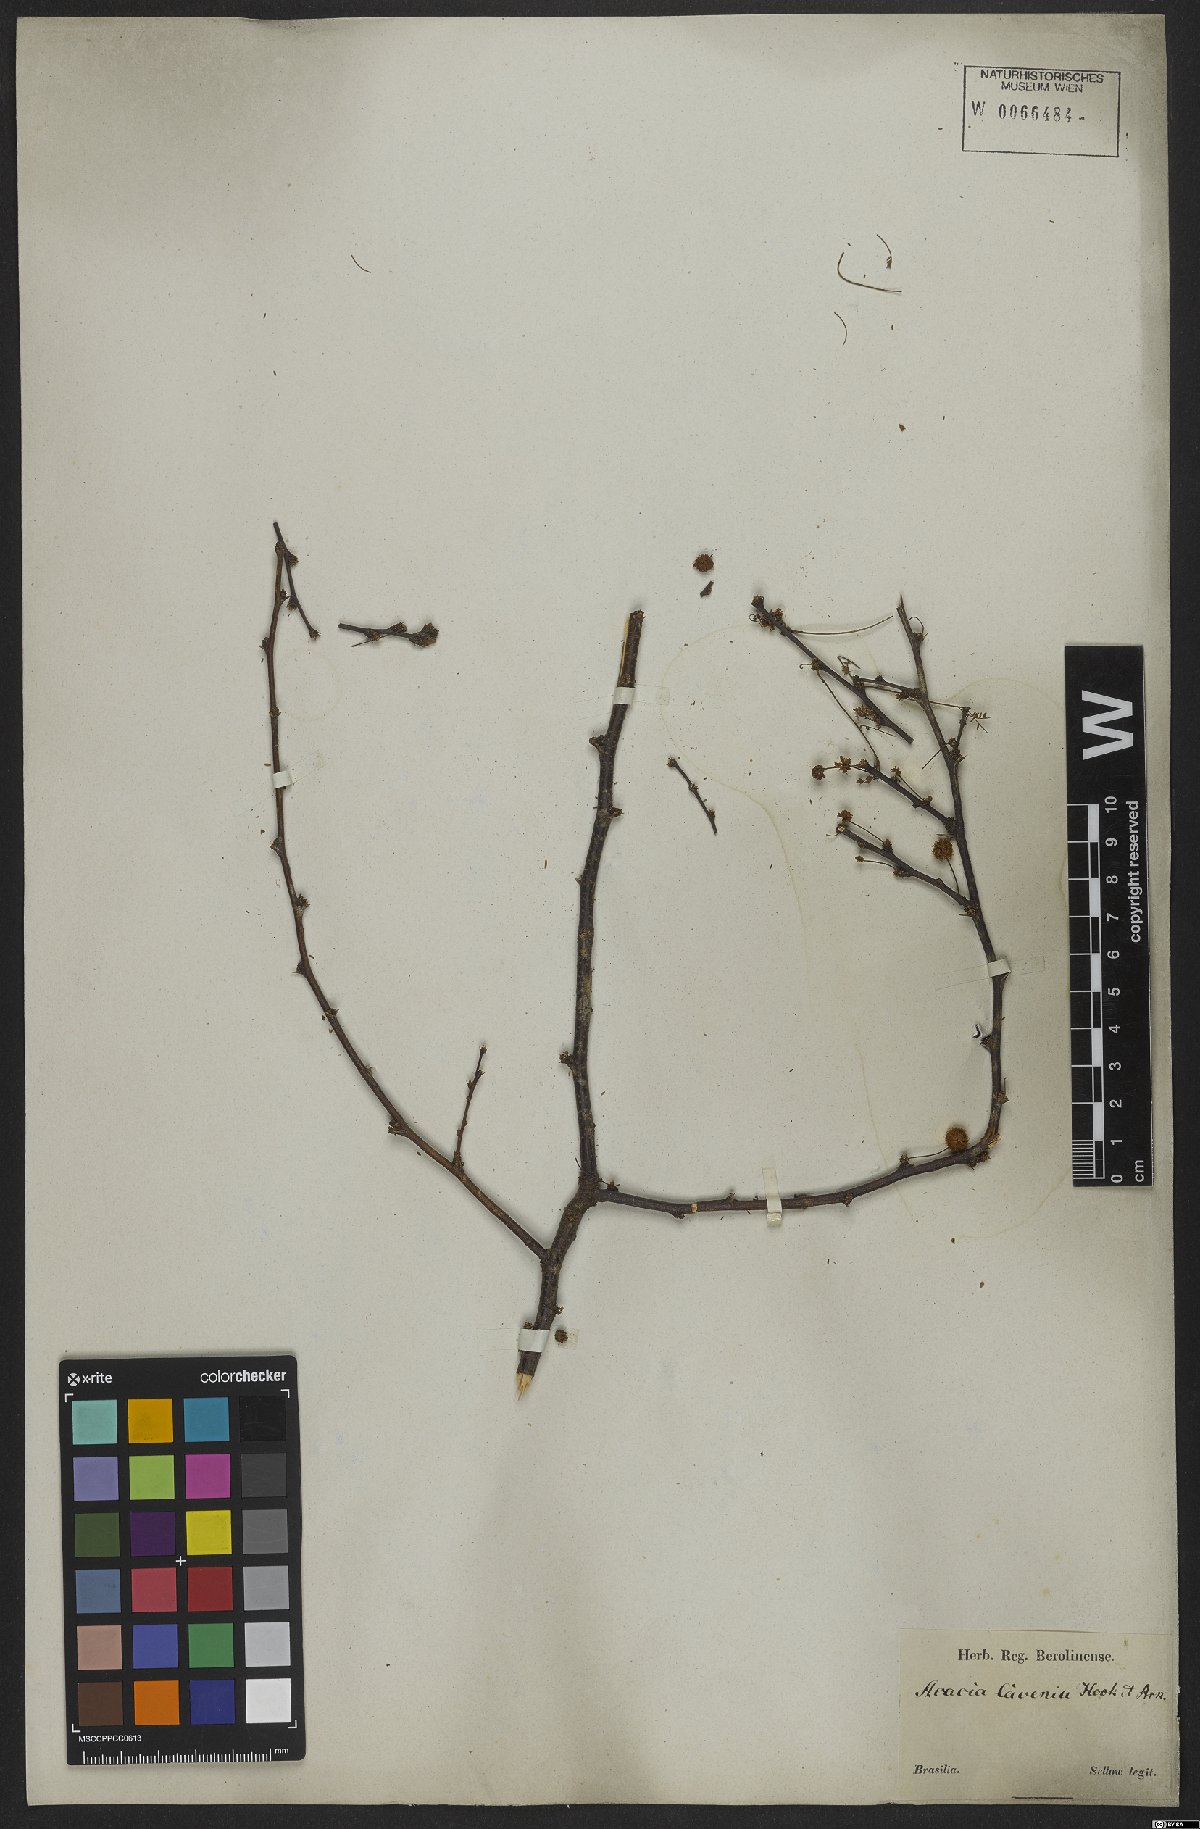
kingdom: Plantae
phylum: Tracheophyta
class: Magnoliopsida
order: Fabales
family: Fabaceae
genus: Vachellia
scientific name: Vachellia caven
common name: Roman cassie
